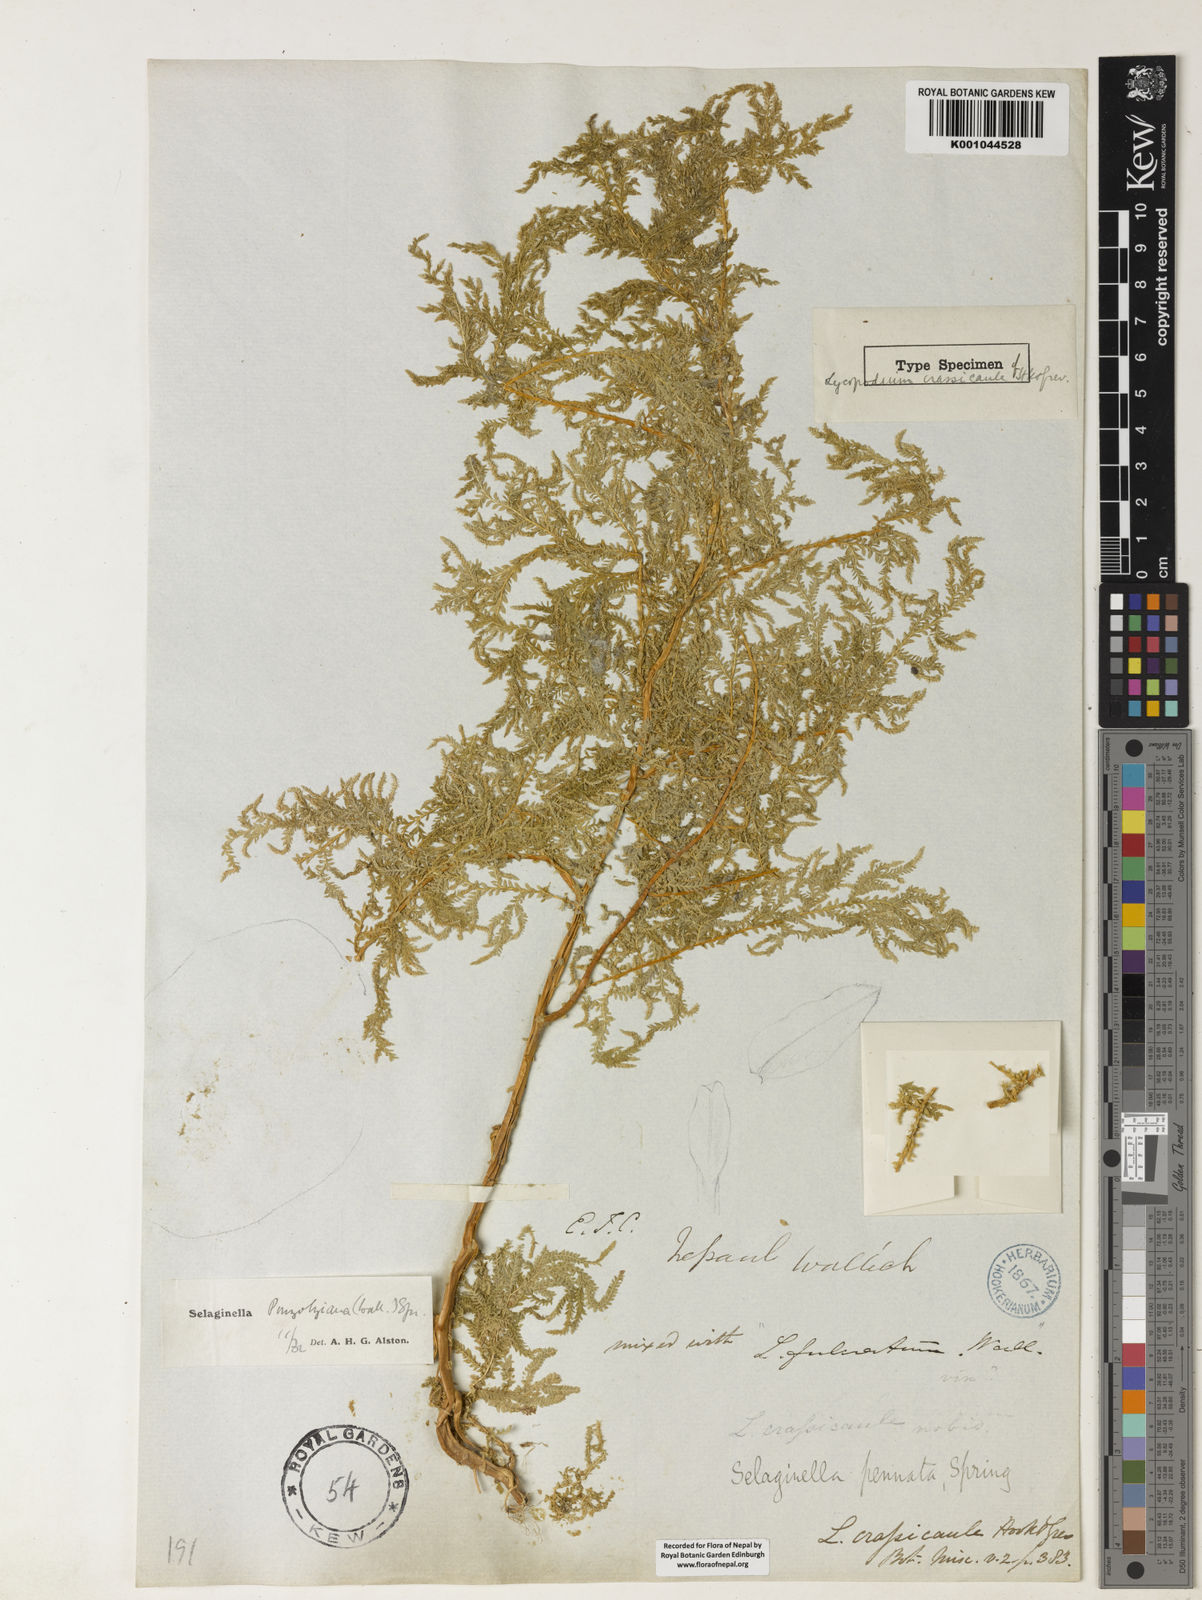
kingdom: Plantae
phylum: Tracheophyta
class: Lycopodiopsida
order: Selaginellales
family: Selaginellaceae
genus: Selaginella
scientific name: Selaginella delicatula
